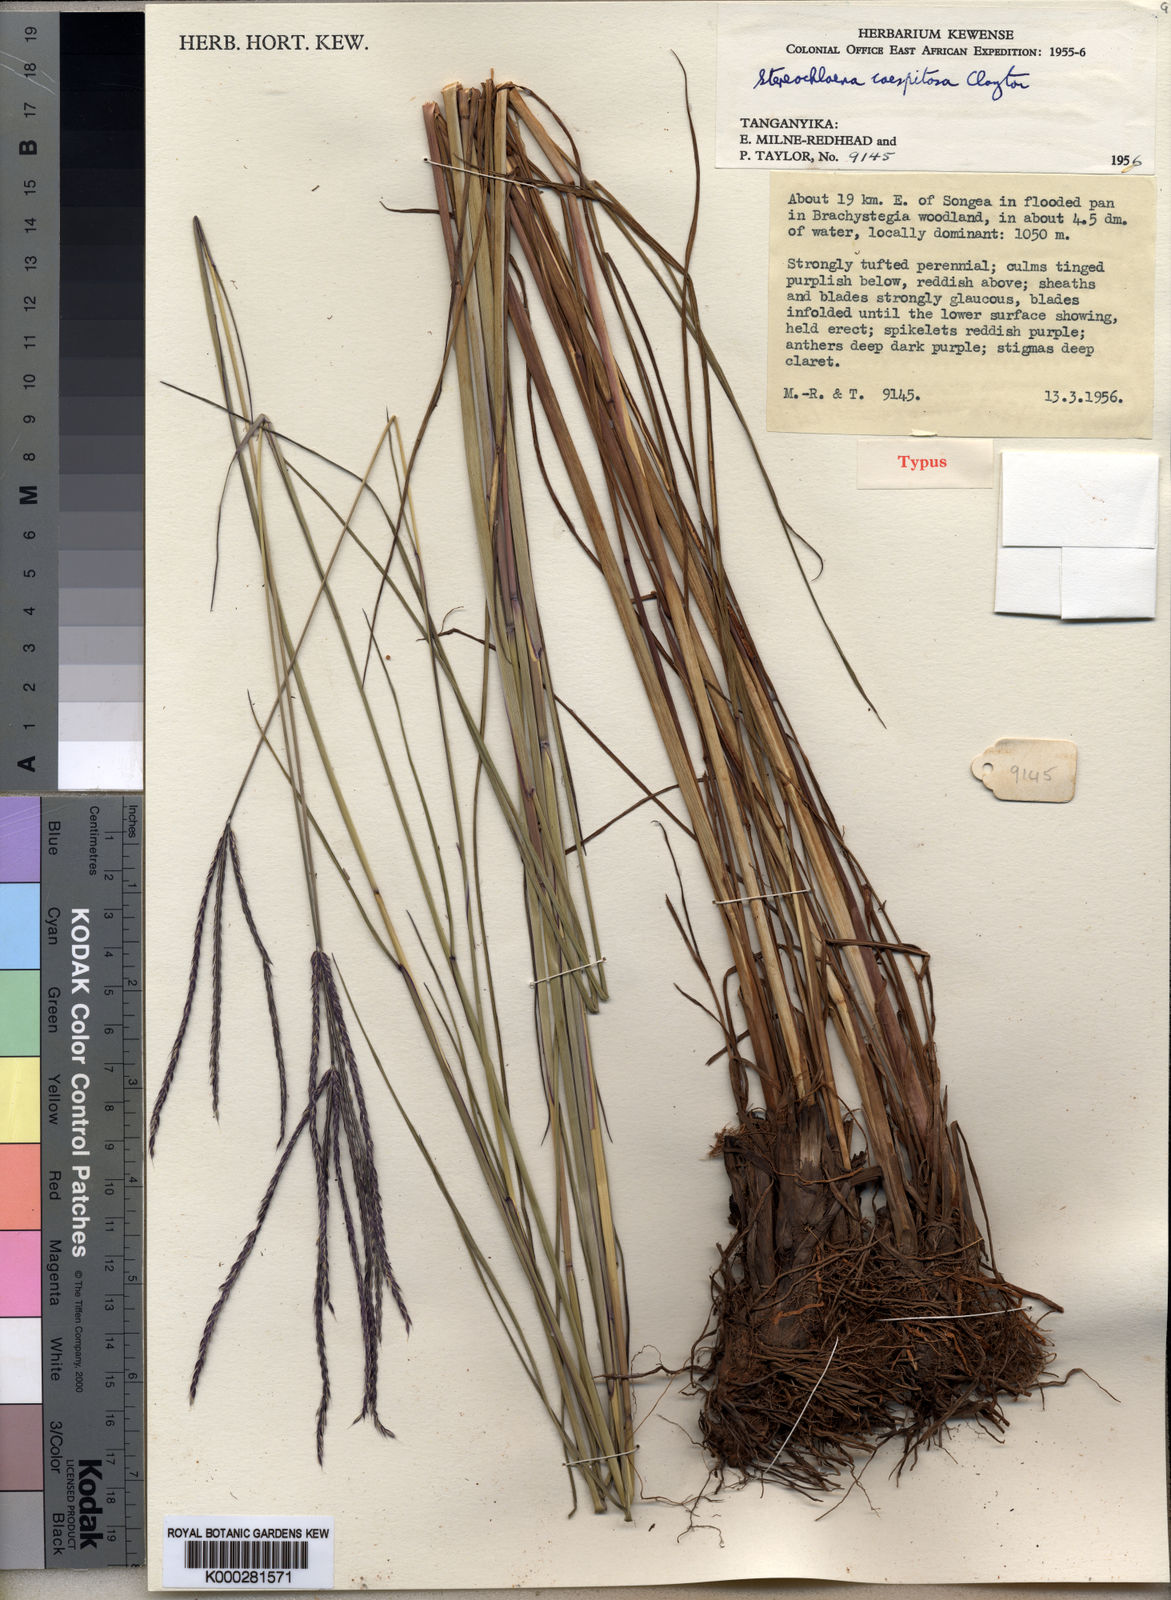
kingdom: Plantae
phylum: Tracheophyta
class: Liliopsida
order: Poales
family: Poaceae
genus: Stereochlaena
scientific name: Stereochlaena caespitosa
